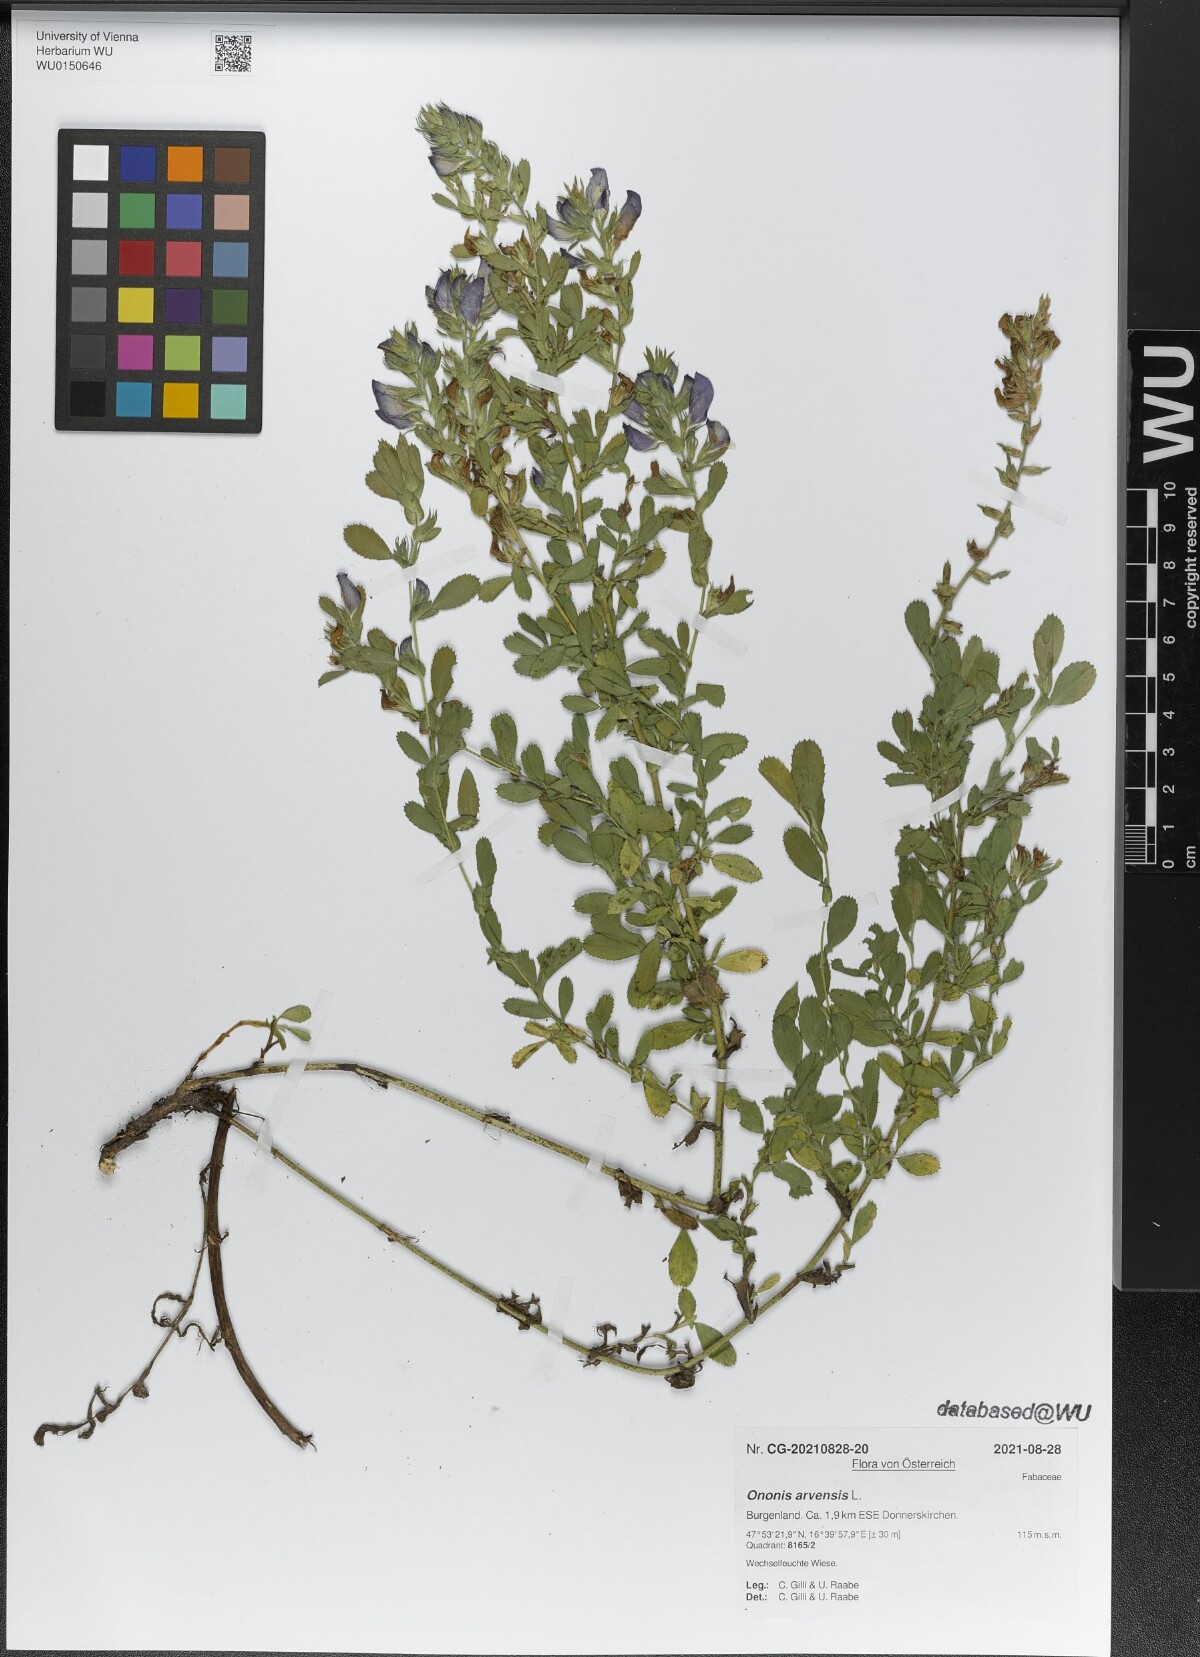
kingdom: Plantae
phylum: Tracheophyta
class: Magnoliopsida
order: Fabales
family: Fabaceae
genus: Ononis
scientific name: Ononis arvensis
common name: Field restharrow
